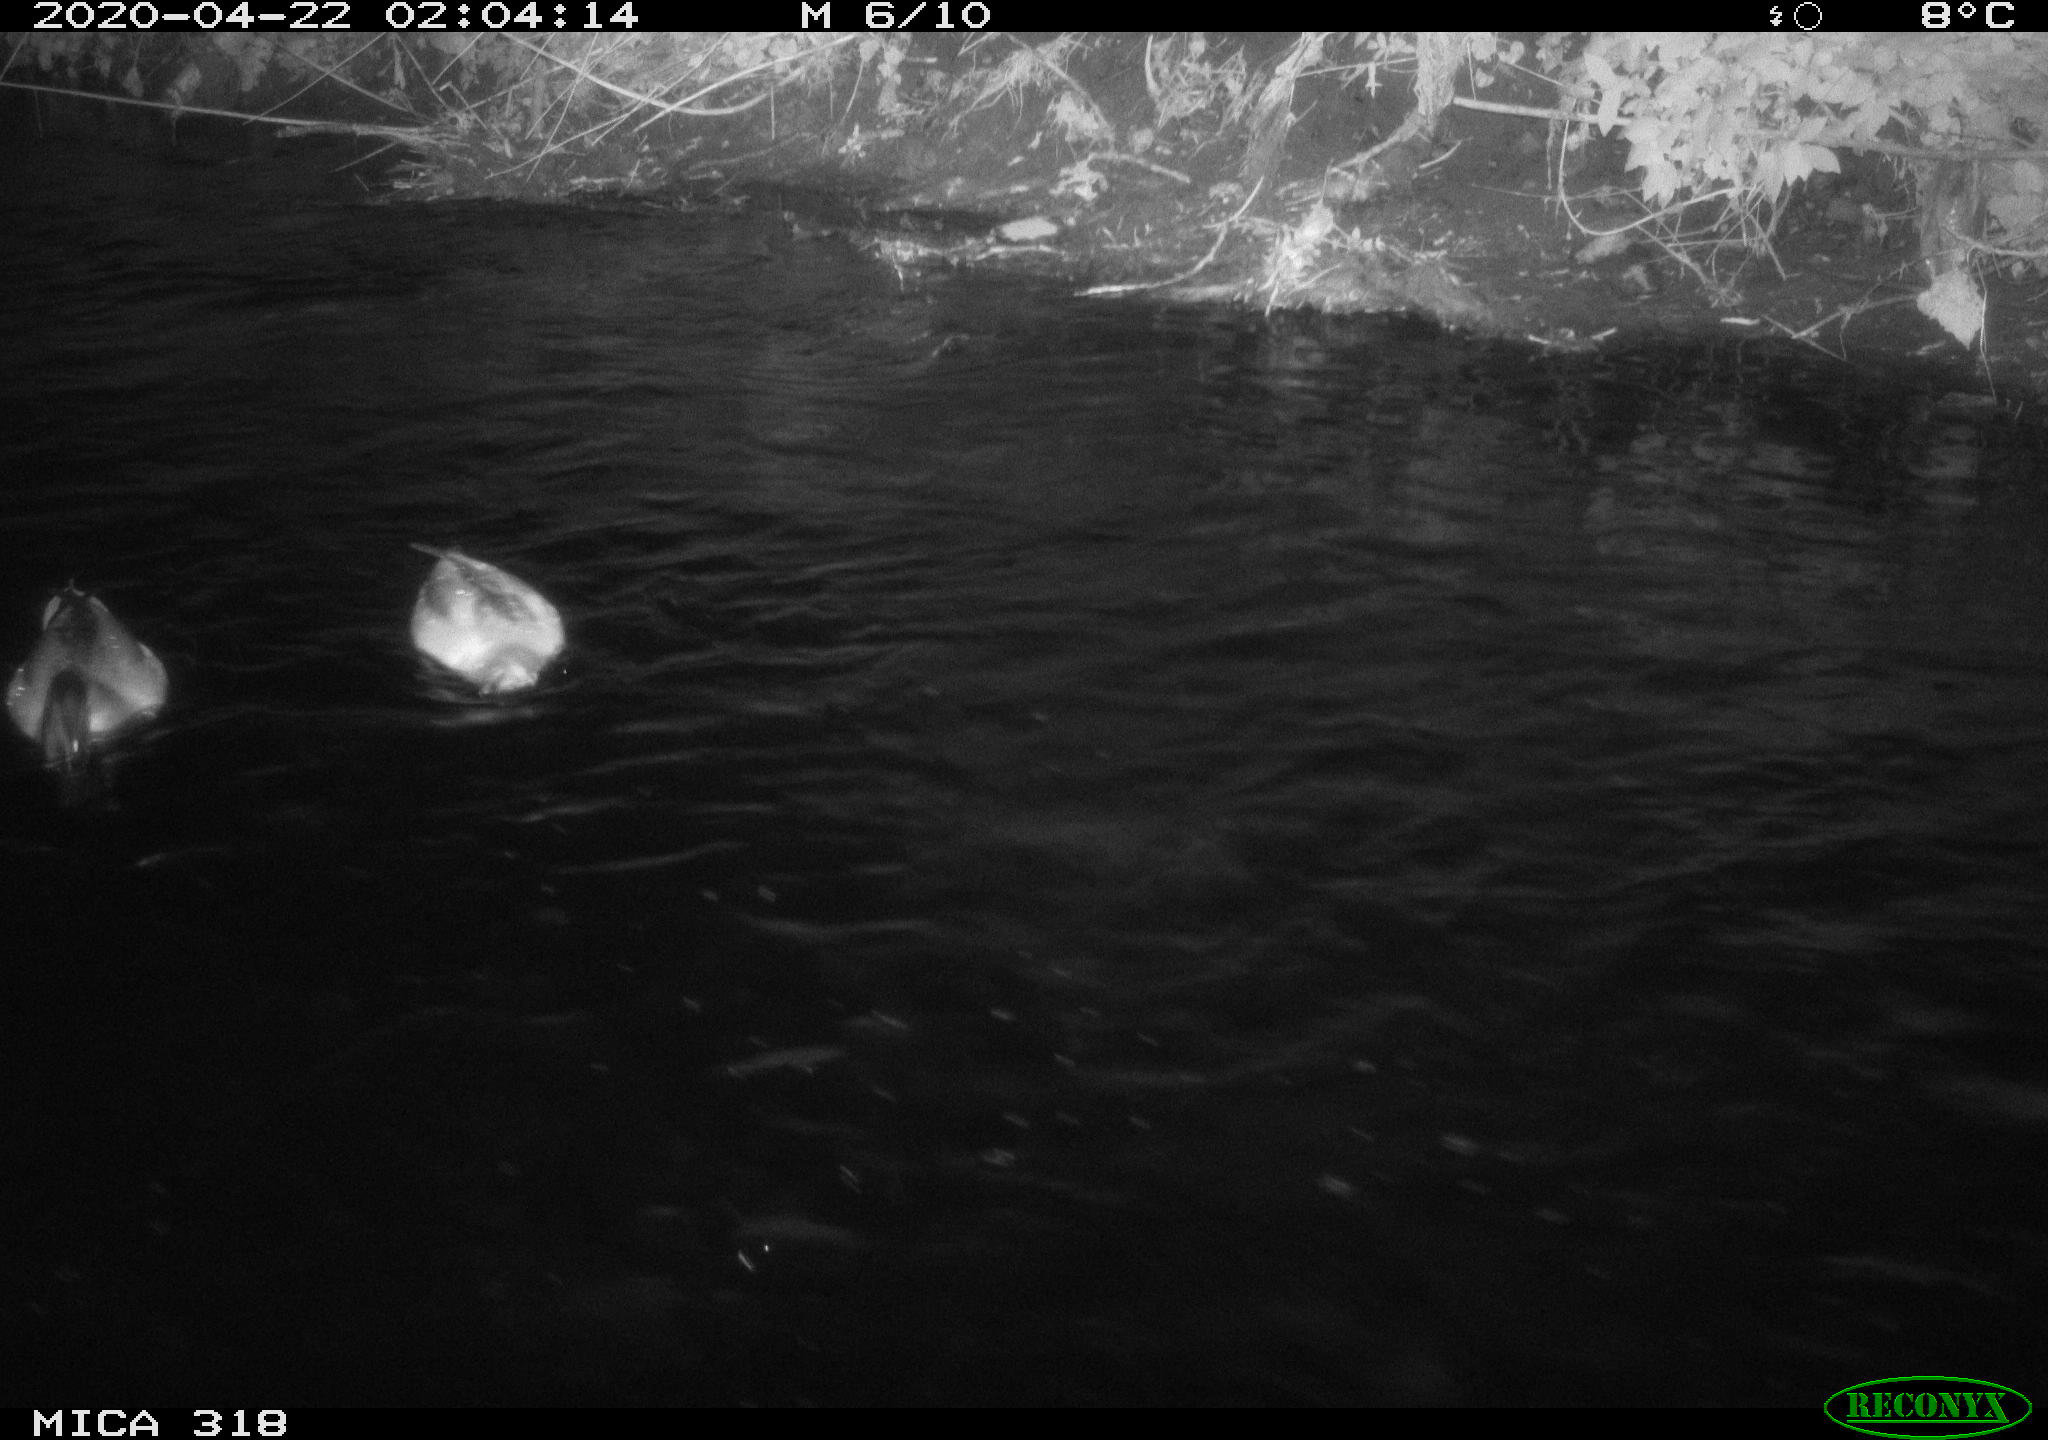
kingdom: Animalia
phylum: Chordata
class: Aves
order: Anseriformes
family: Anatidae
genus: Anas
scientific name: Anas platyrhynchos
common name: Mallard
